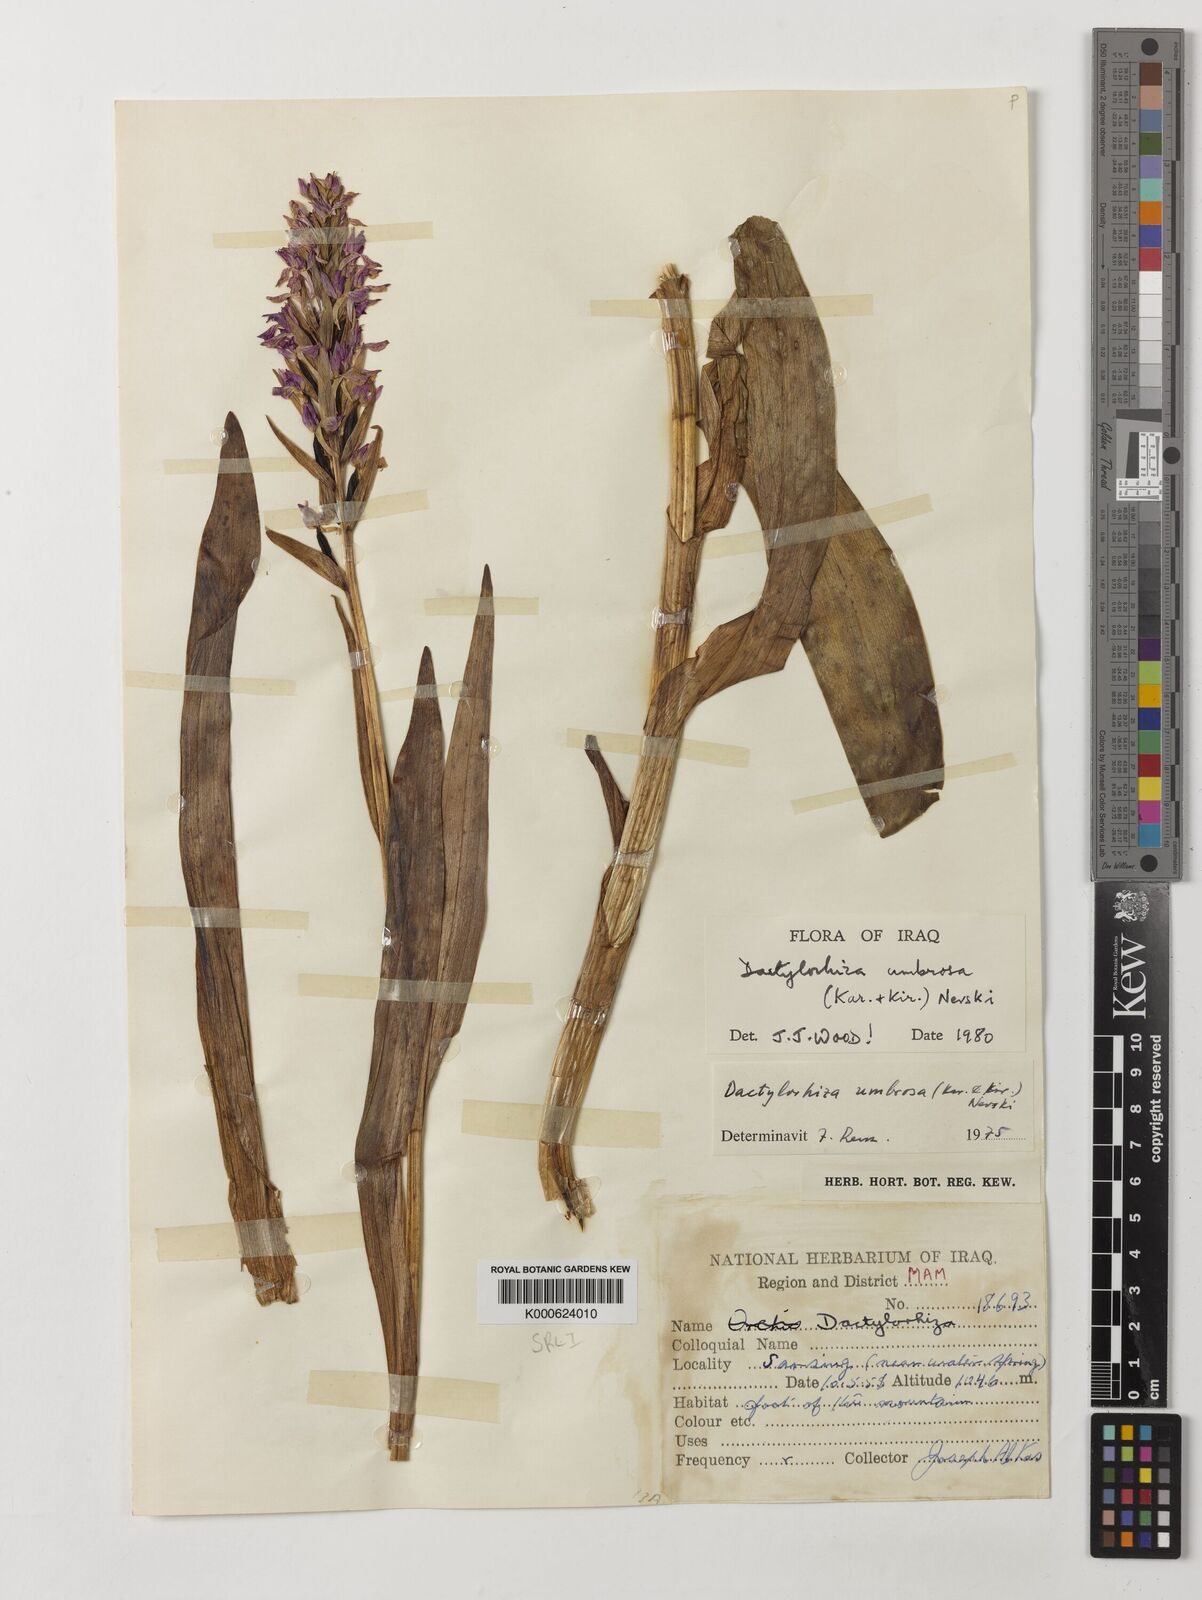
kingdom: Plantae
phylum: Tracheophyta
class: Liliopsida
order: Asparagales
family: Orchidaceae
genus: Dactylorhiza
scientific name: Dactylorhiza
